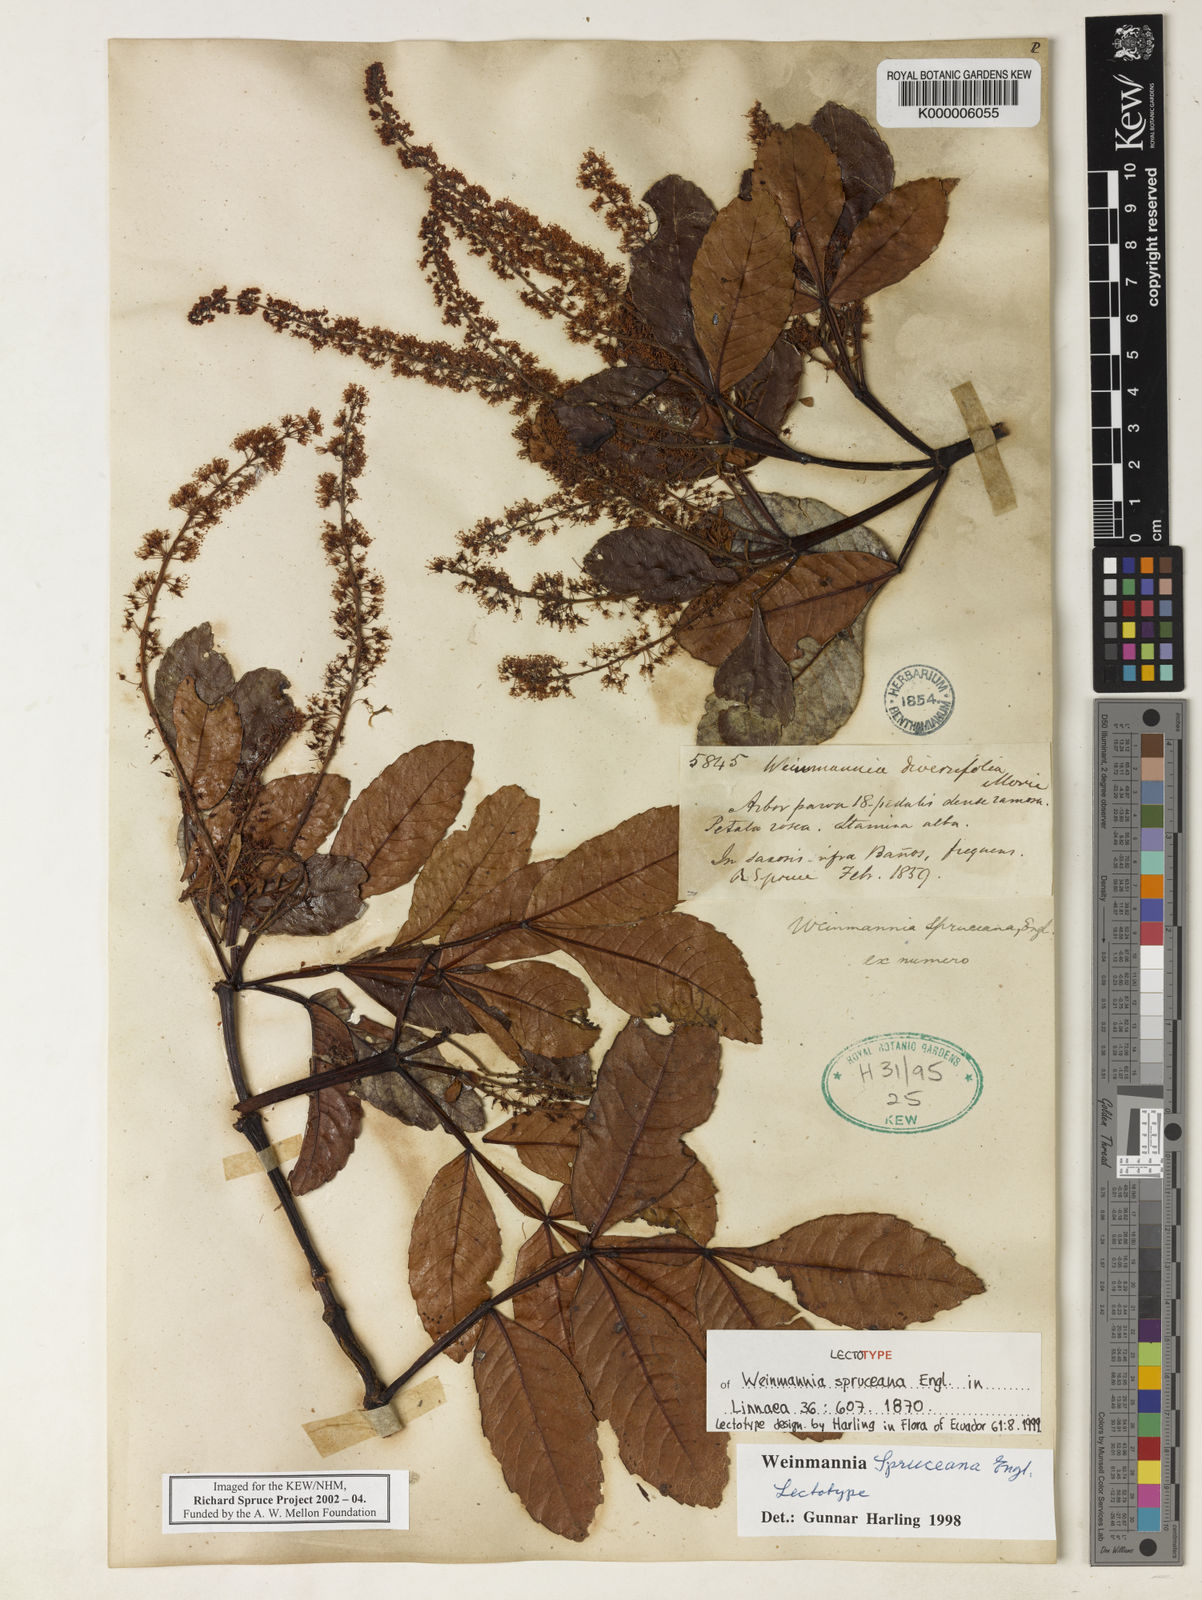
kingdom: Plantae
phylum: Tracheophyta
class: Magnoliopsida
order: Oxalidales
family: Cunoniaceae
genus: Weinmannia
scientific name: Weinmannia spruceana
